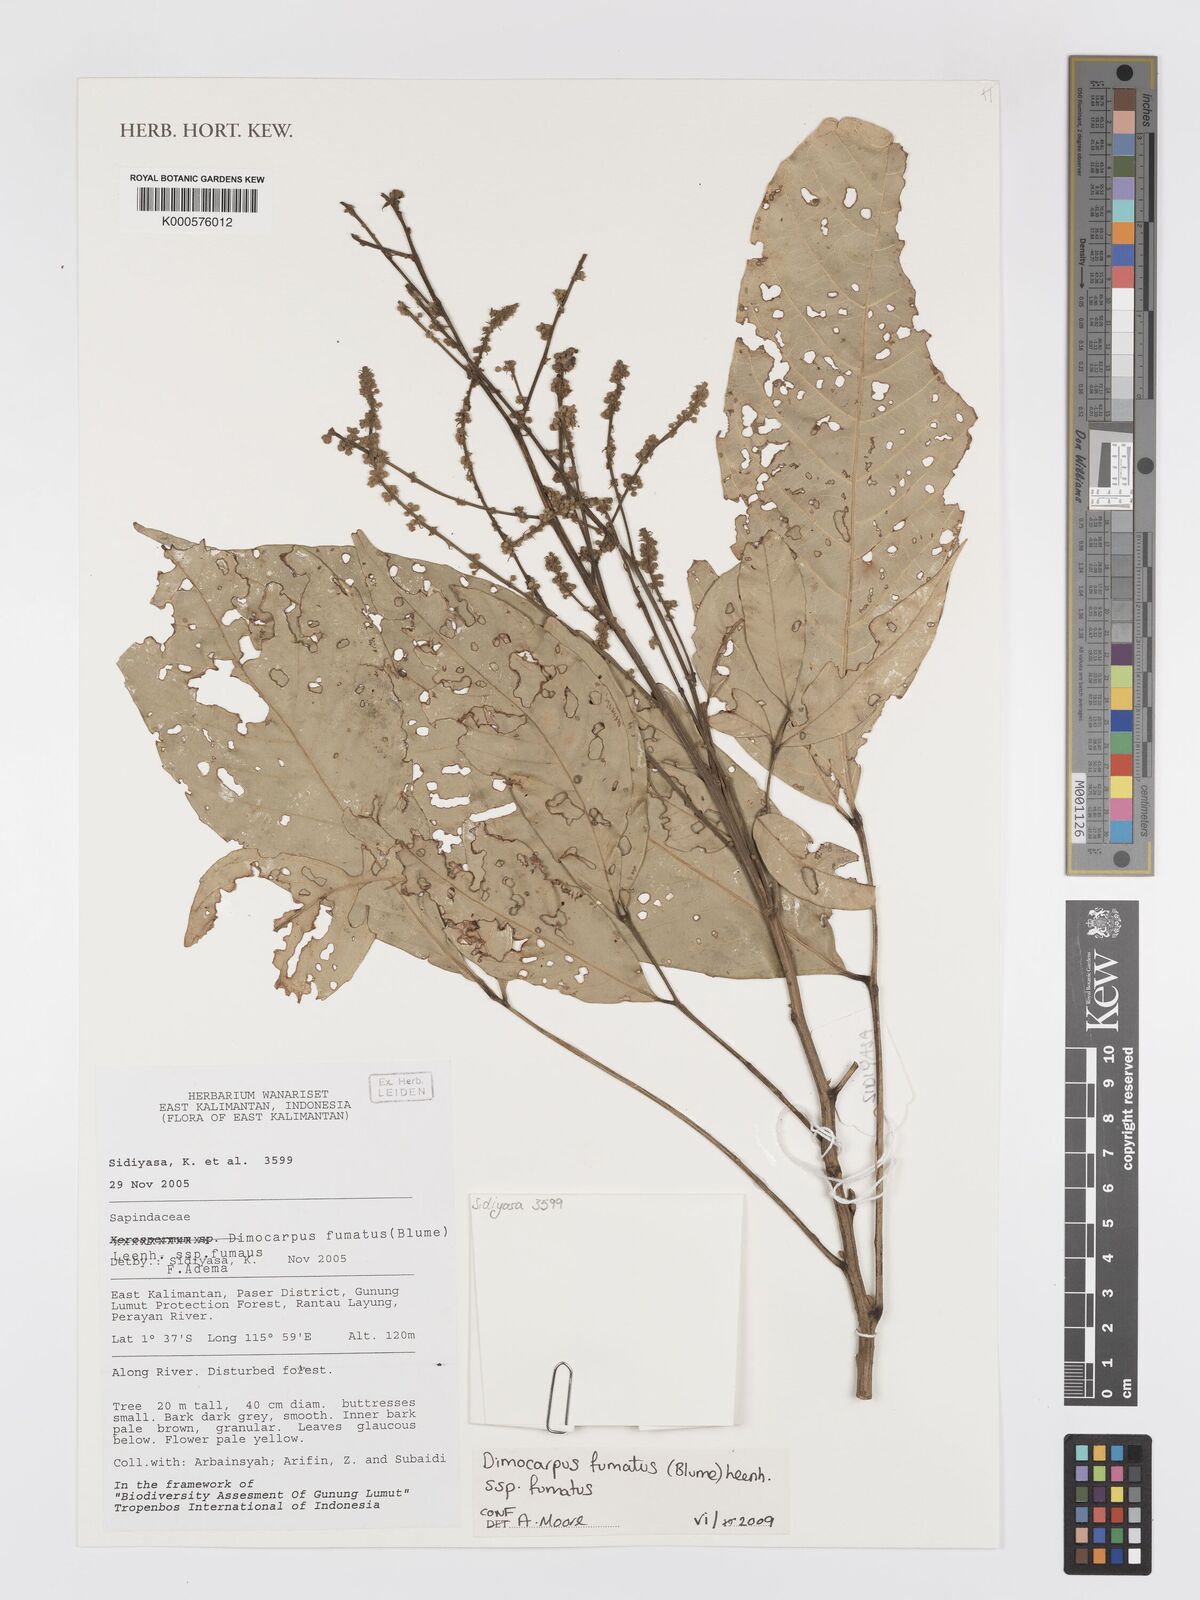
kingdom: Plantae
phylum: Tracheophyta
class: Magnoliopsida
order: Sapindales
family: Sapindaceae
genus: Dimocarpus
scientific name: Dimocarpus fumatus
